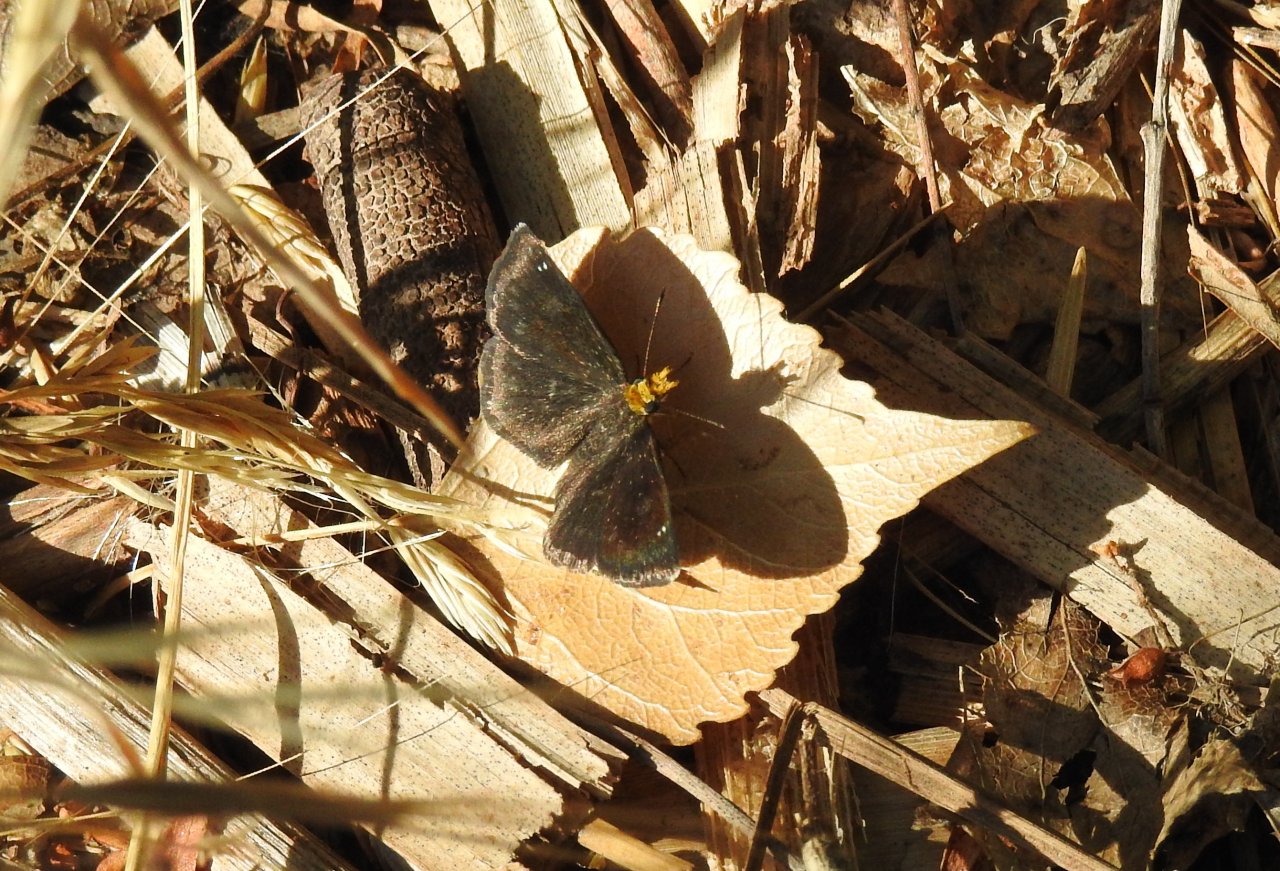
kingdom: Animalia
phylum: Arthropoda
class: Insecta
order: Lepidoptera
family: Hesperiidae
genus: Staphylus
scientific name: Staphylus ceos
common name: Golden-headed Scallopwing
